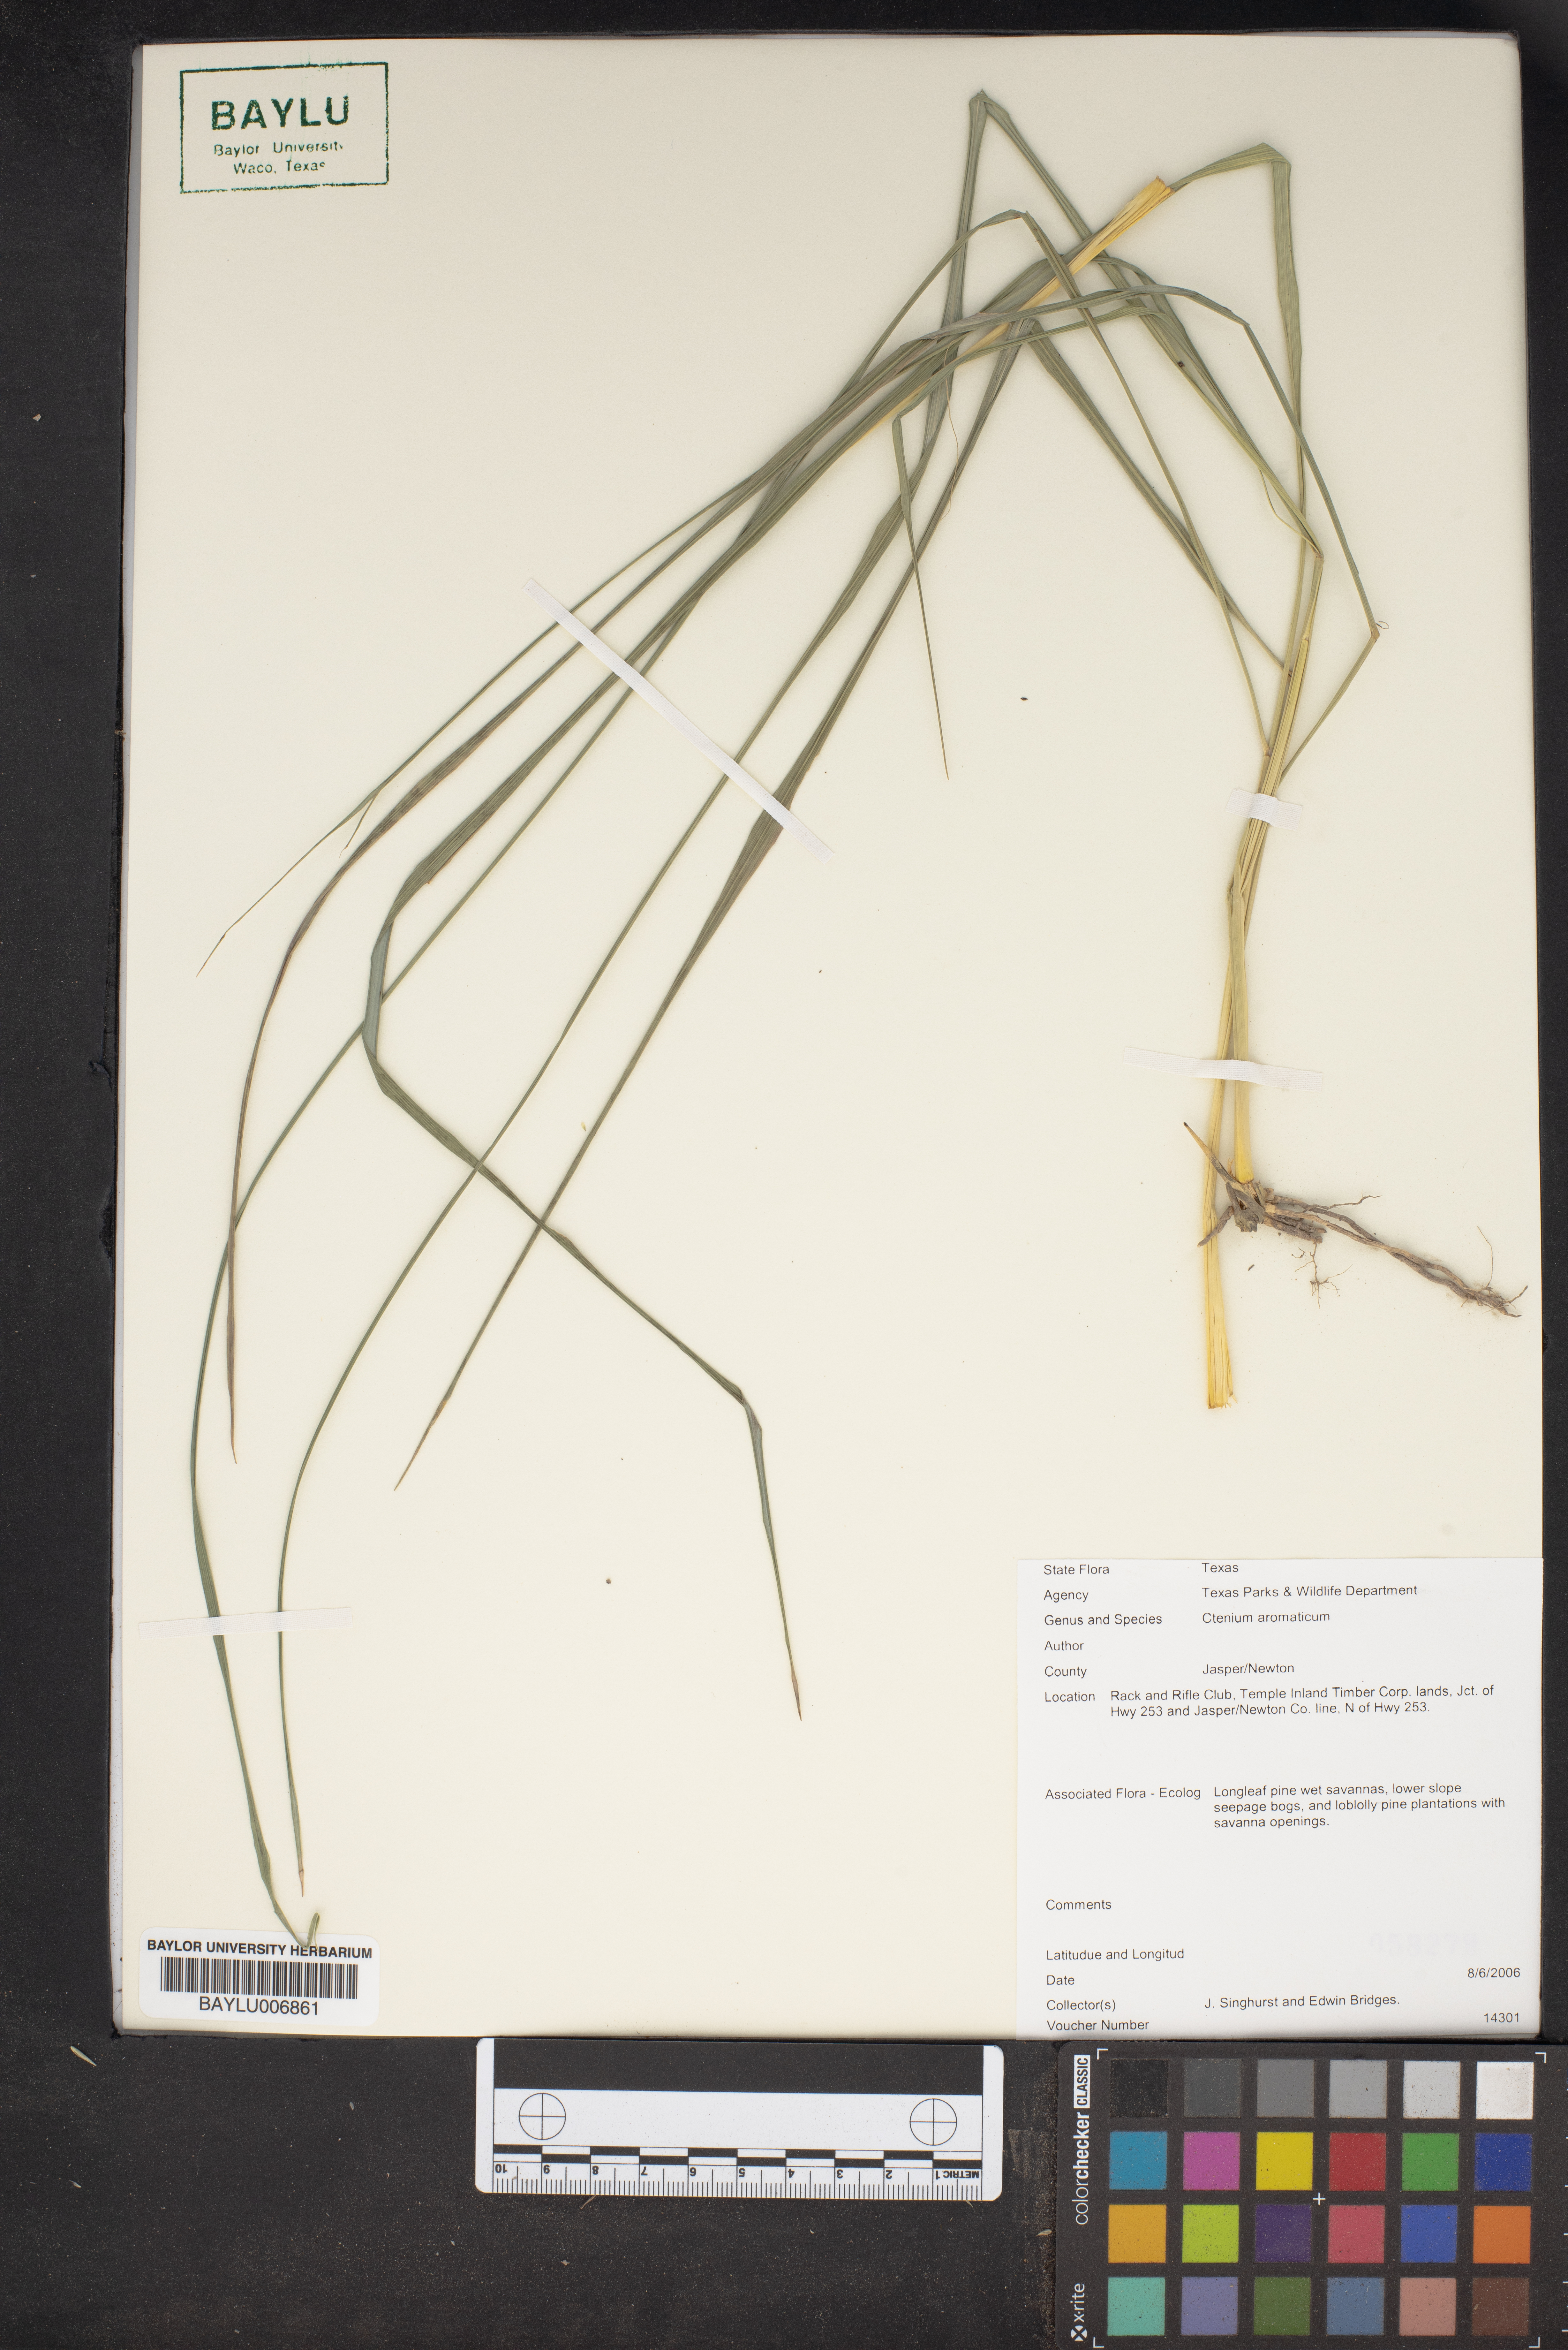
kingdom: Plantae
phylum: Tracheophyta
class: Liliopsida
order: Poales
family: Poaceae
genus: Ctenium
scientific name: Ctenium aromaticum
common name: Toothache grass
